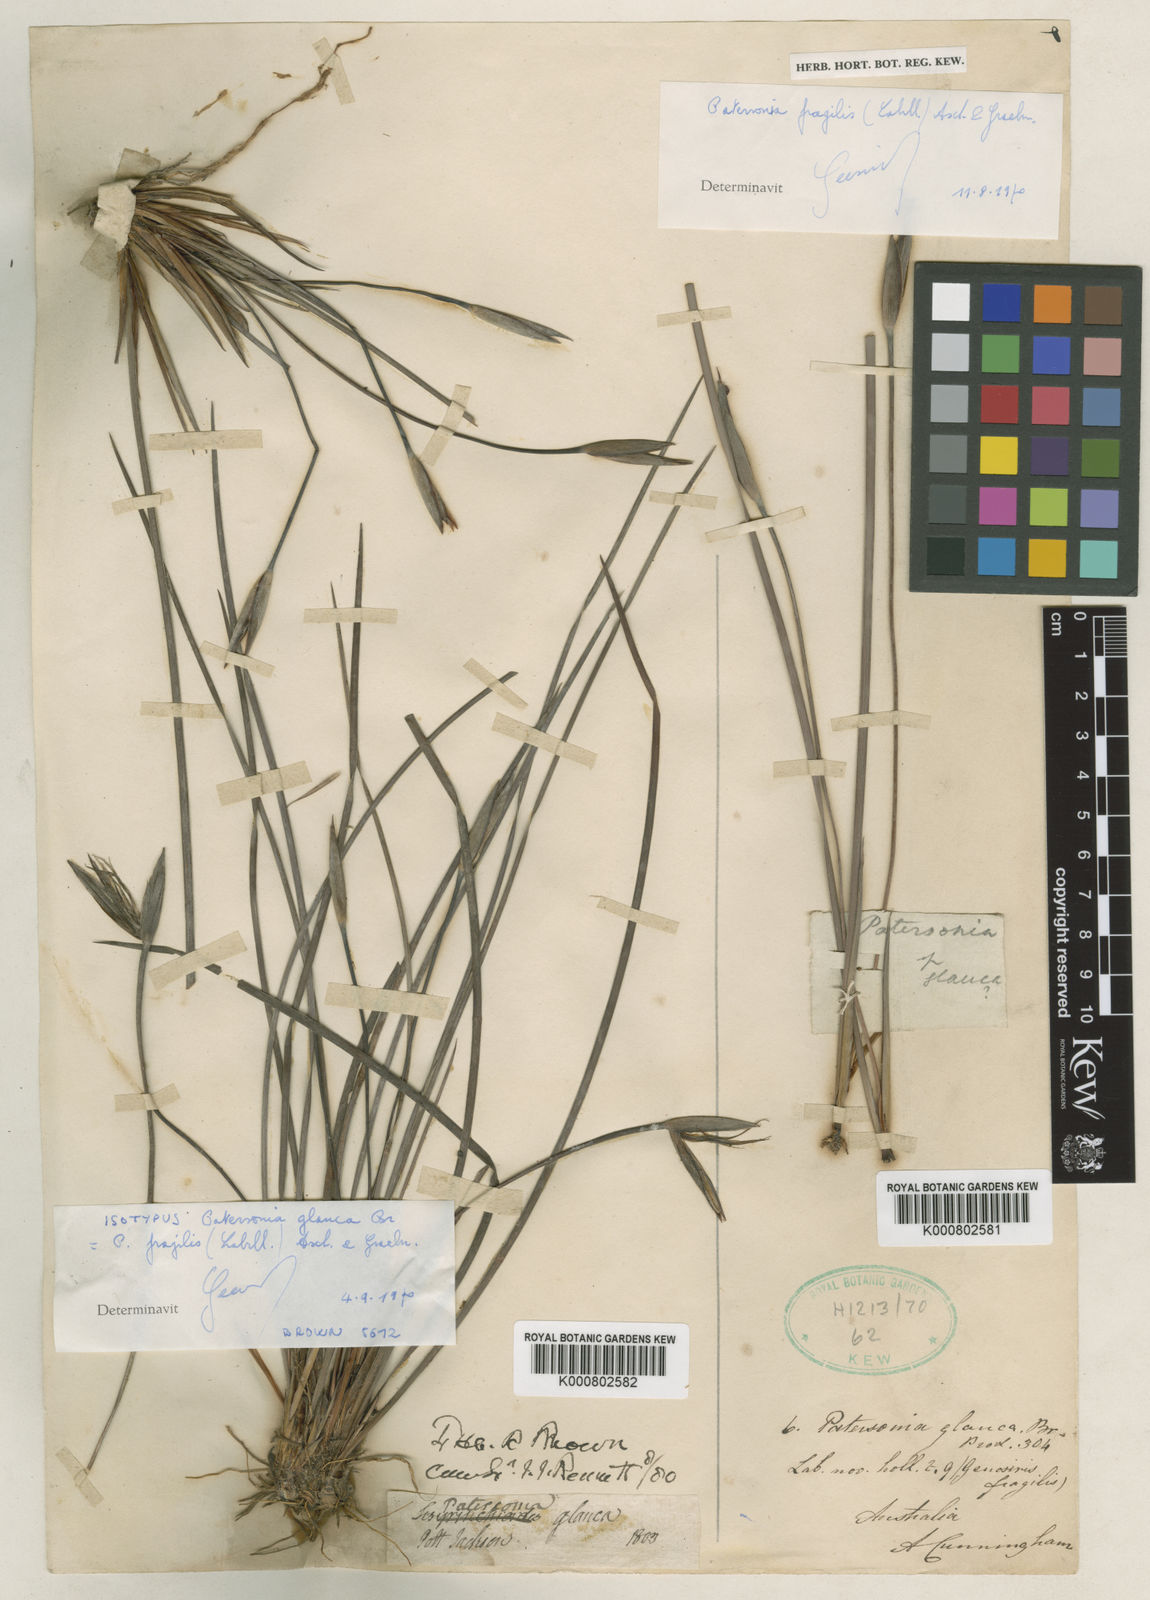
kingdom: Plantae
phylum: Tracheophyta
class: Liliopsida
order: Asparagales
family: Iridaceae
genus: Patersonia
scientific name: Patersonia fragilis
